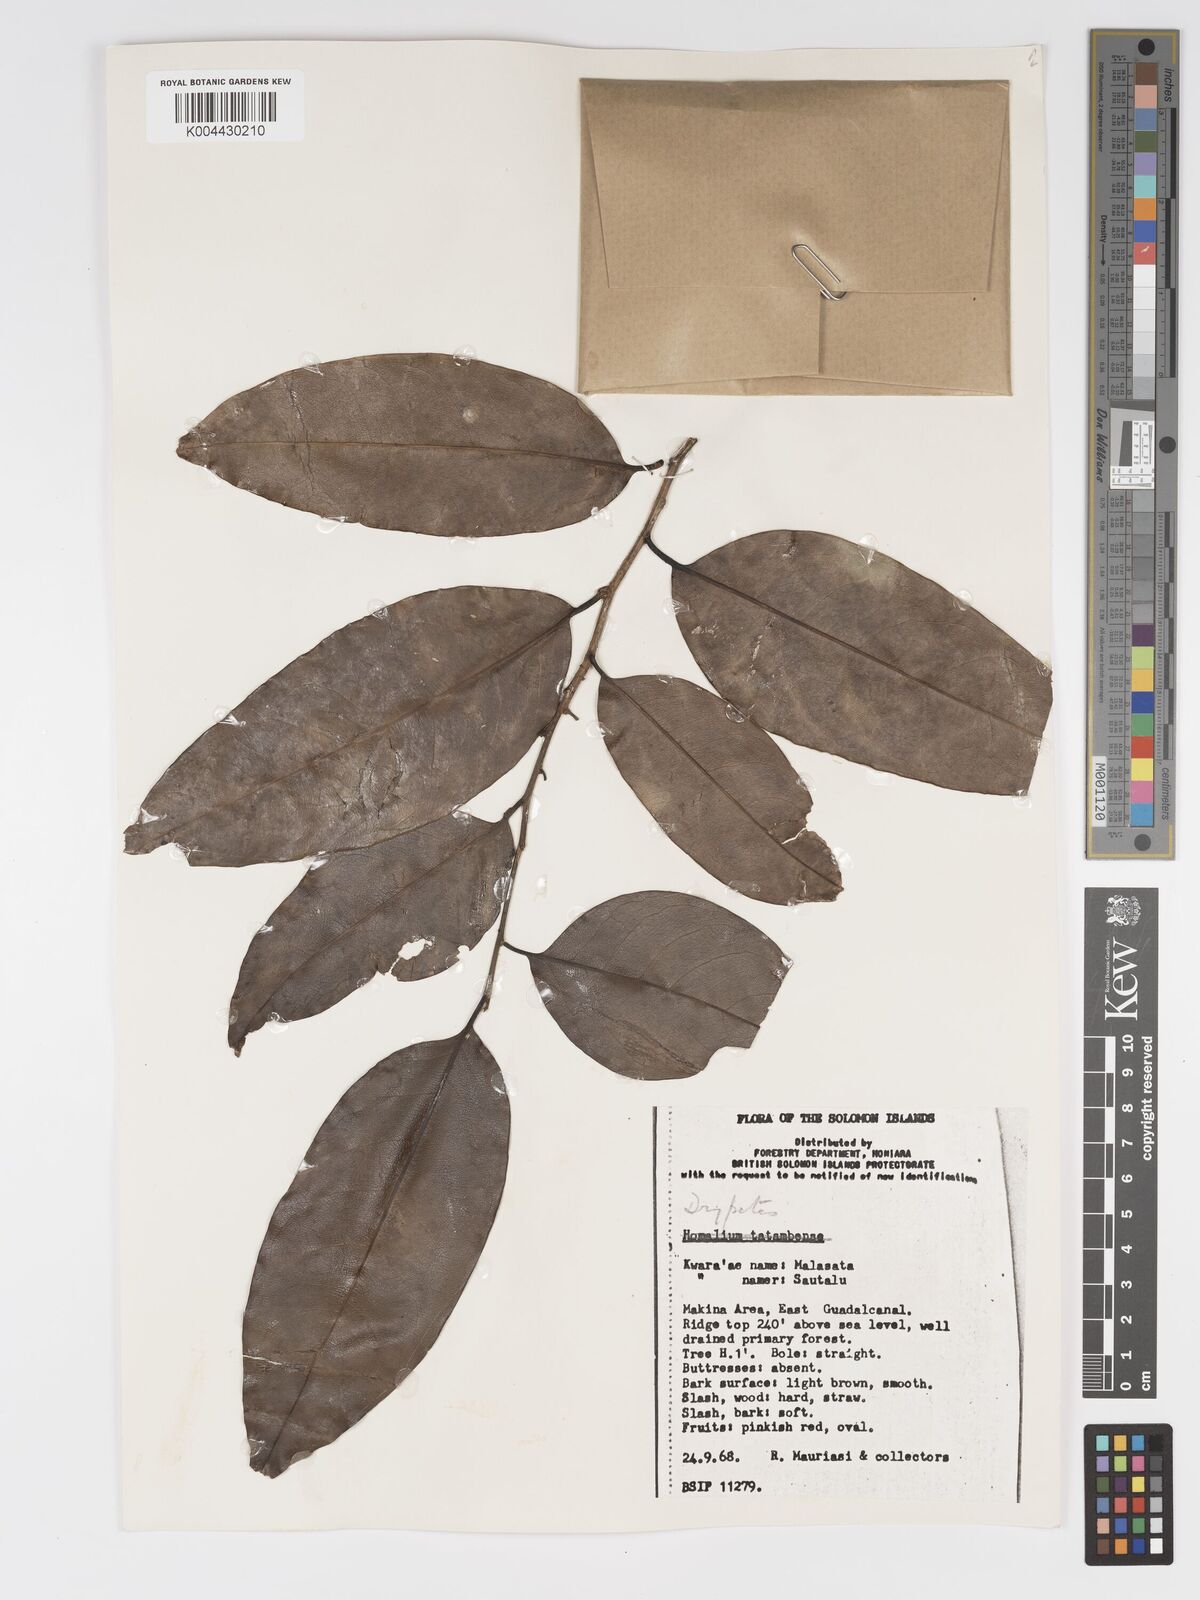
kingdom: Plantae
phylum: Tracheophyta
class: Magnoliopsida
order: Malpighiales
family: Putranjivaceae
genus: Drypetes
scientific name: Drypetes lasiogynoides
